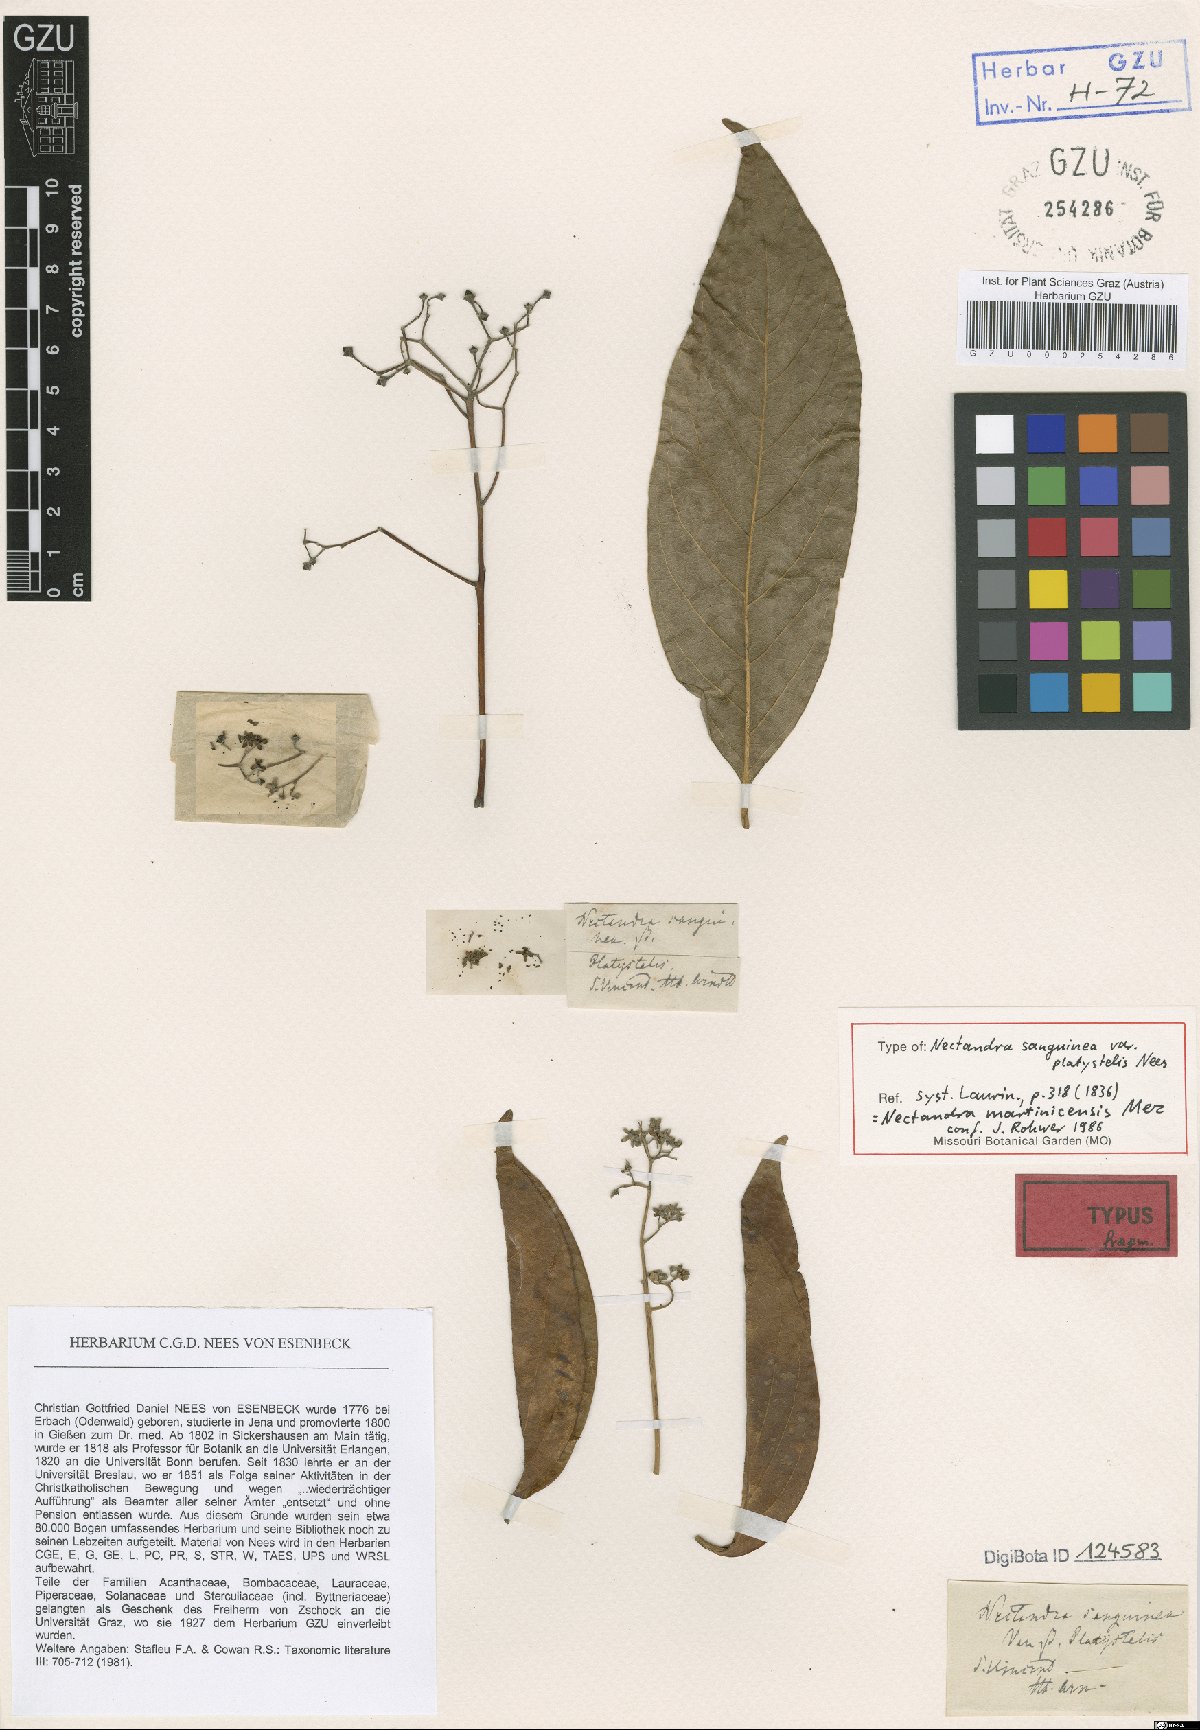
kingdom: Plantae
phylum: Tracheophyta
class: Magnoliopsida
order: Laurales
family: Lauraceae
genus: Damburneya
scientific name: Damburneya coriacea
